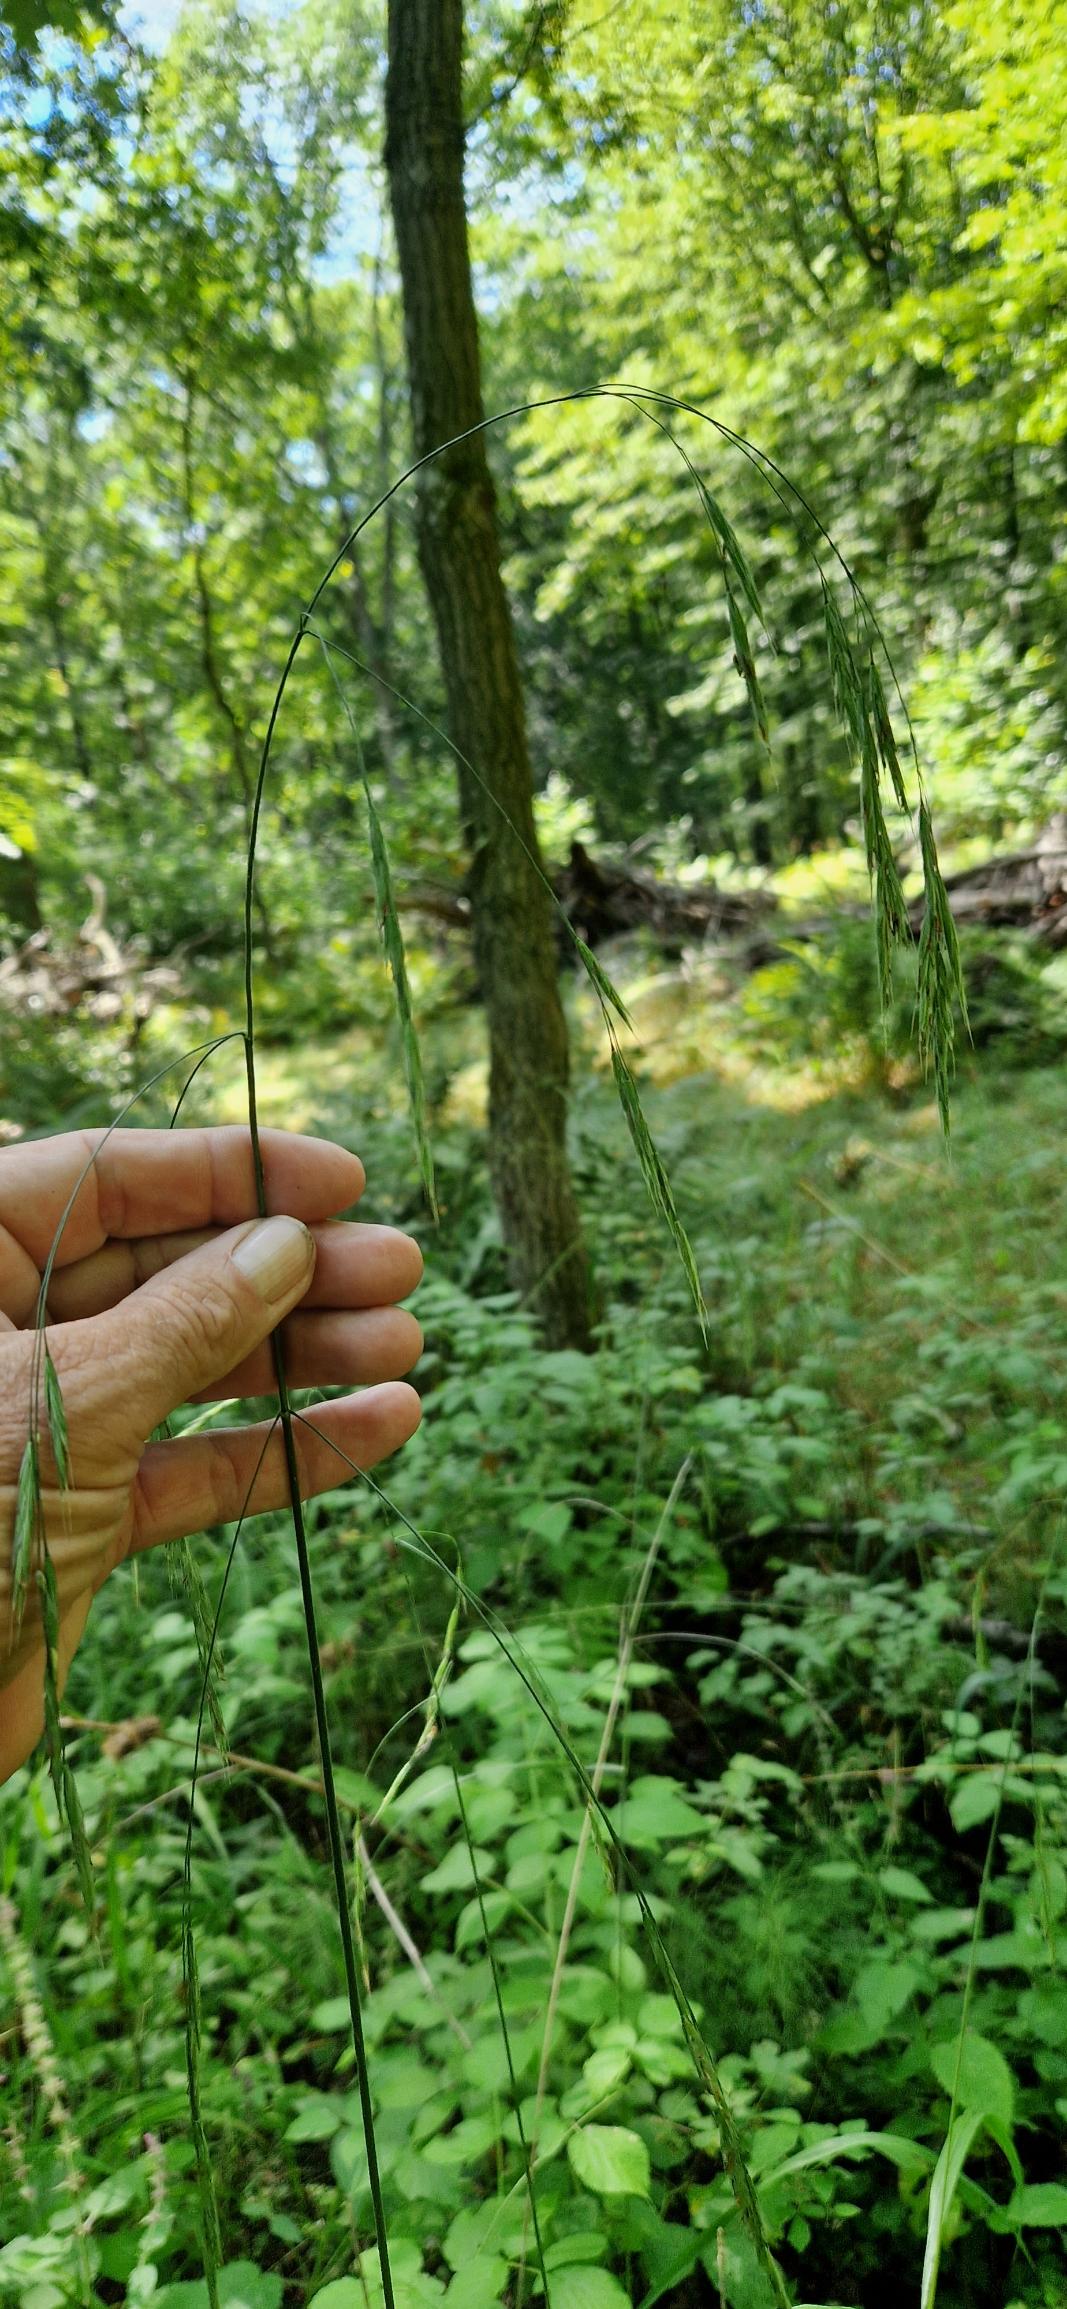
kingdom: Plantae
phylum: Tracheophyta
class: Liliopsida
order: Poales
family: Poaceae
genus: Bromus
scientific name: Bromus ramosus
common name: Sildig skov-hejre
